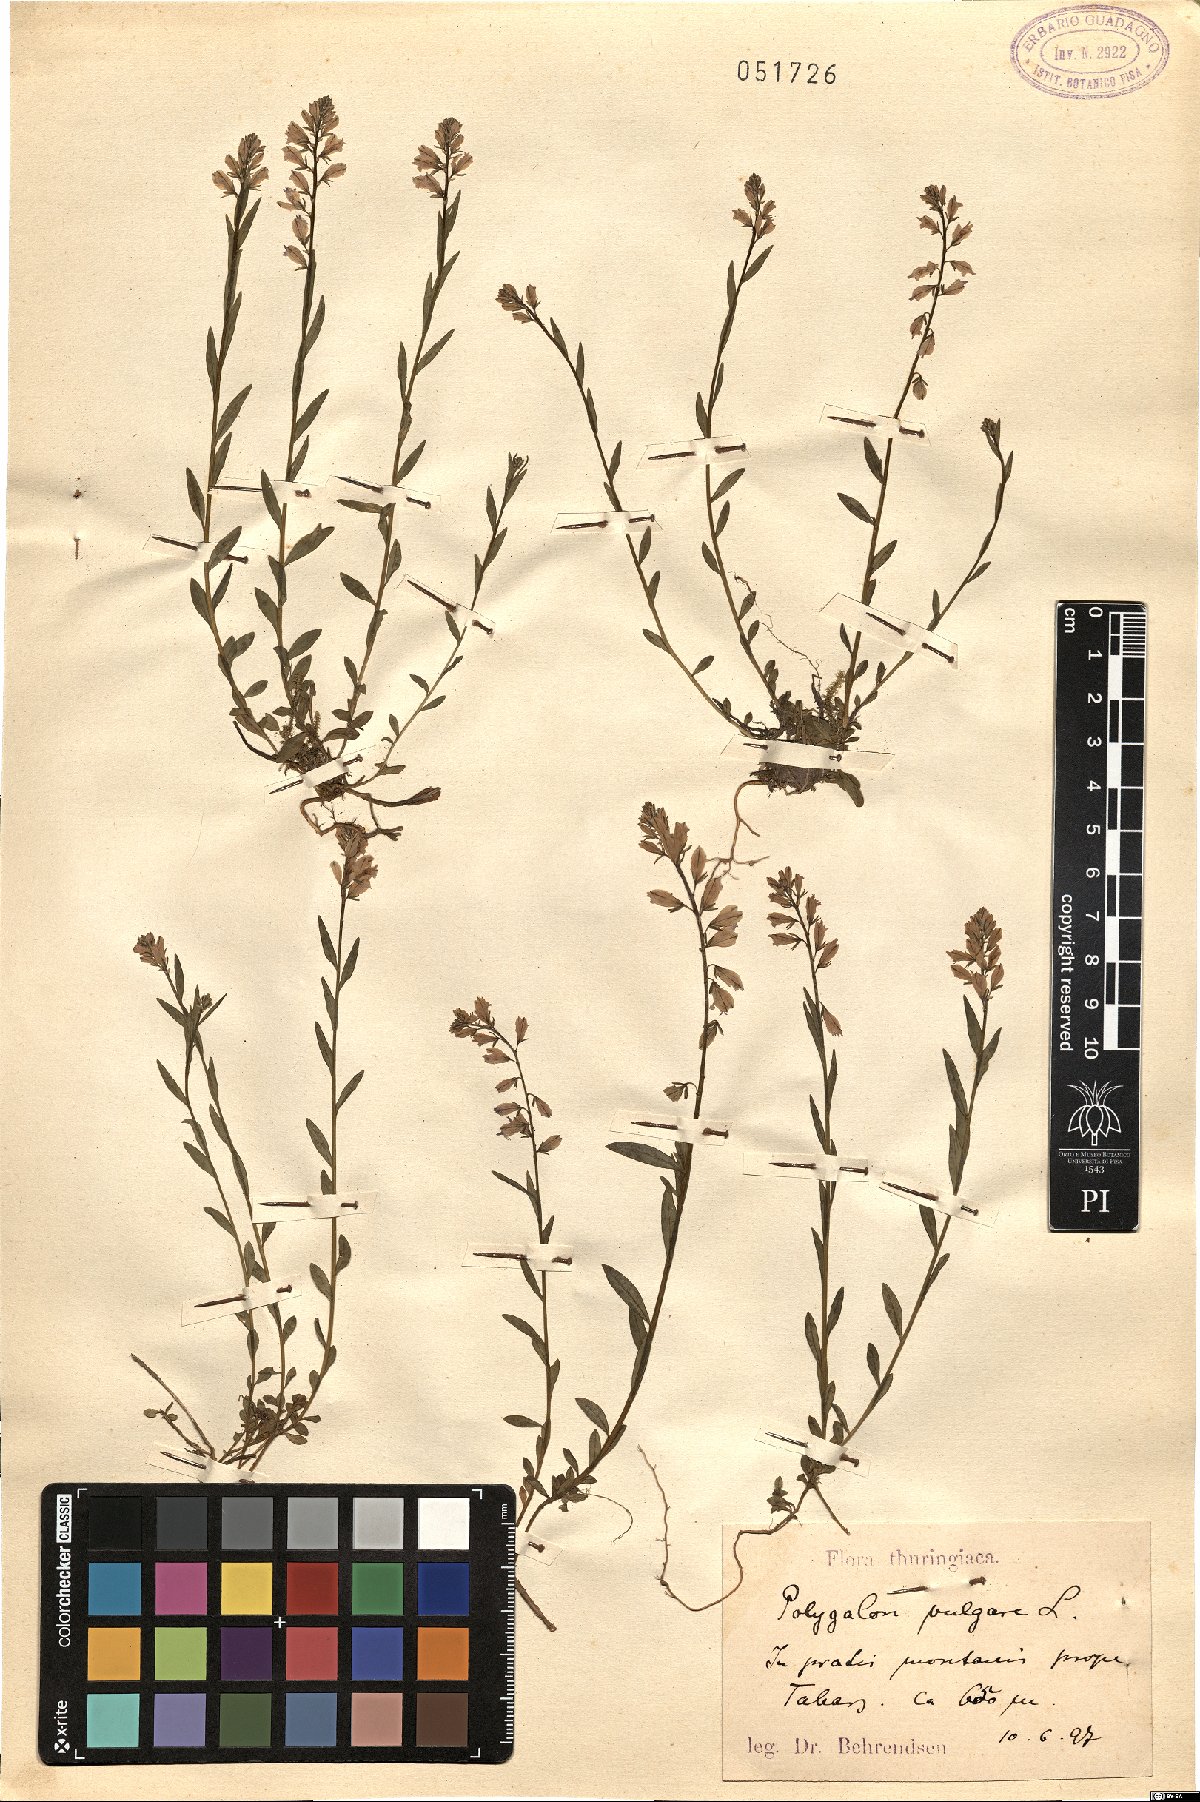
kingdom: Plantae
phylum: Tracheophyta
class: Magnoliopsida
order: Fabales
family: Polygalaceae
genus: Polygala
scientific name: Polygala vulgaris
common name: Common milkwort
